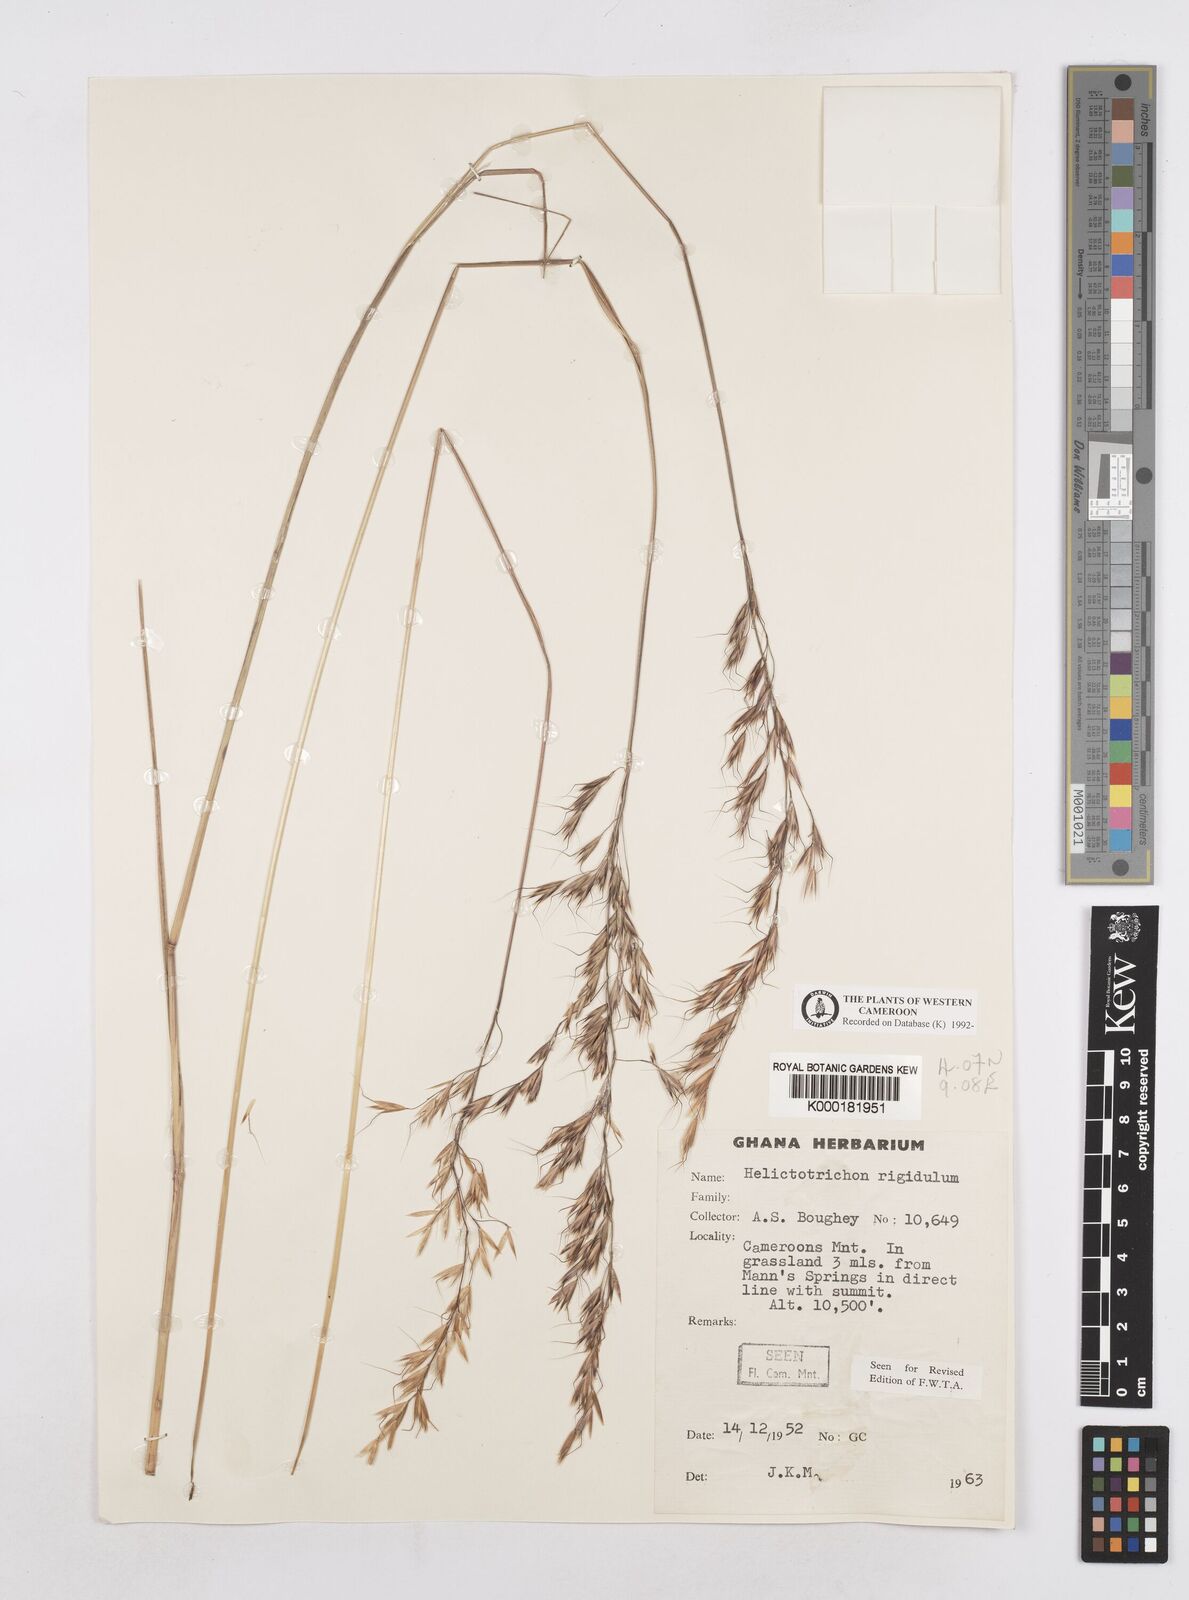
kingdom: Plantae
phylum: Tracheophyta
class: Liliopsida
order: Poales
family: Poaceae
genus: Trisetopsis
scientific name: Trisetopsis elongata
